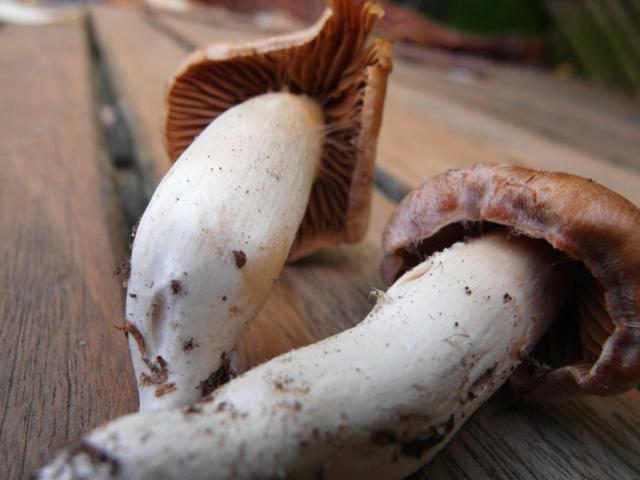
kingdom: Fungi
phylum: Basidiomycota
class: Agaricomycetes
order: Agaricales
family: Cortinariaceae
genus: Cortinarius
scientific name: Cortinarius
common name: jod-slørhat
